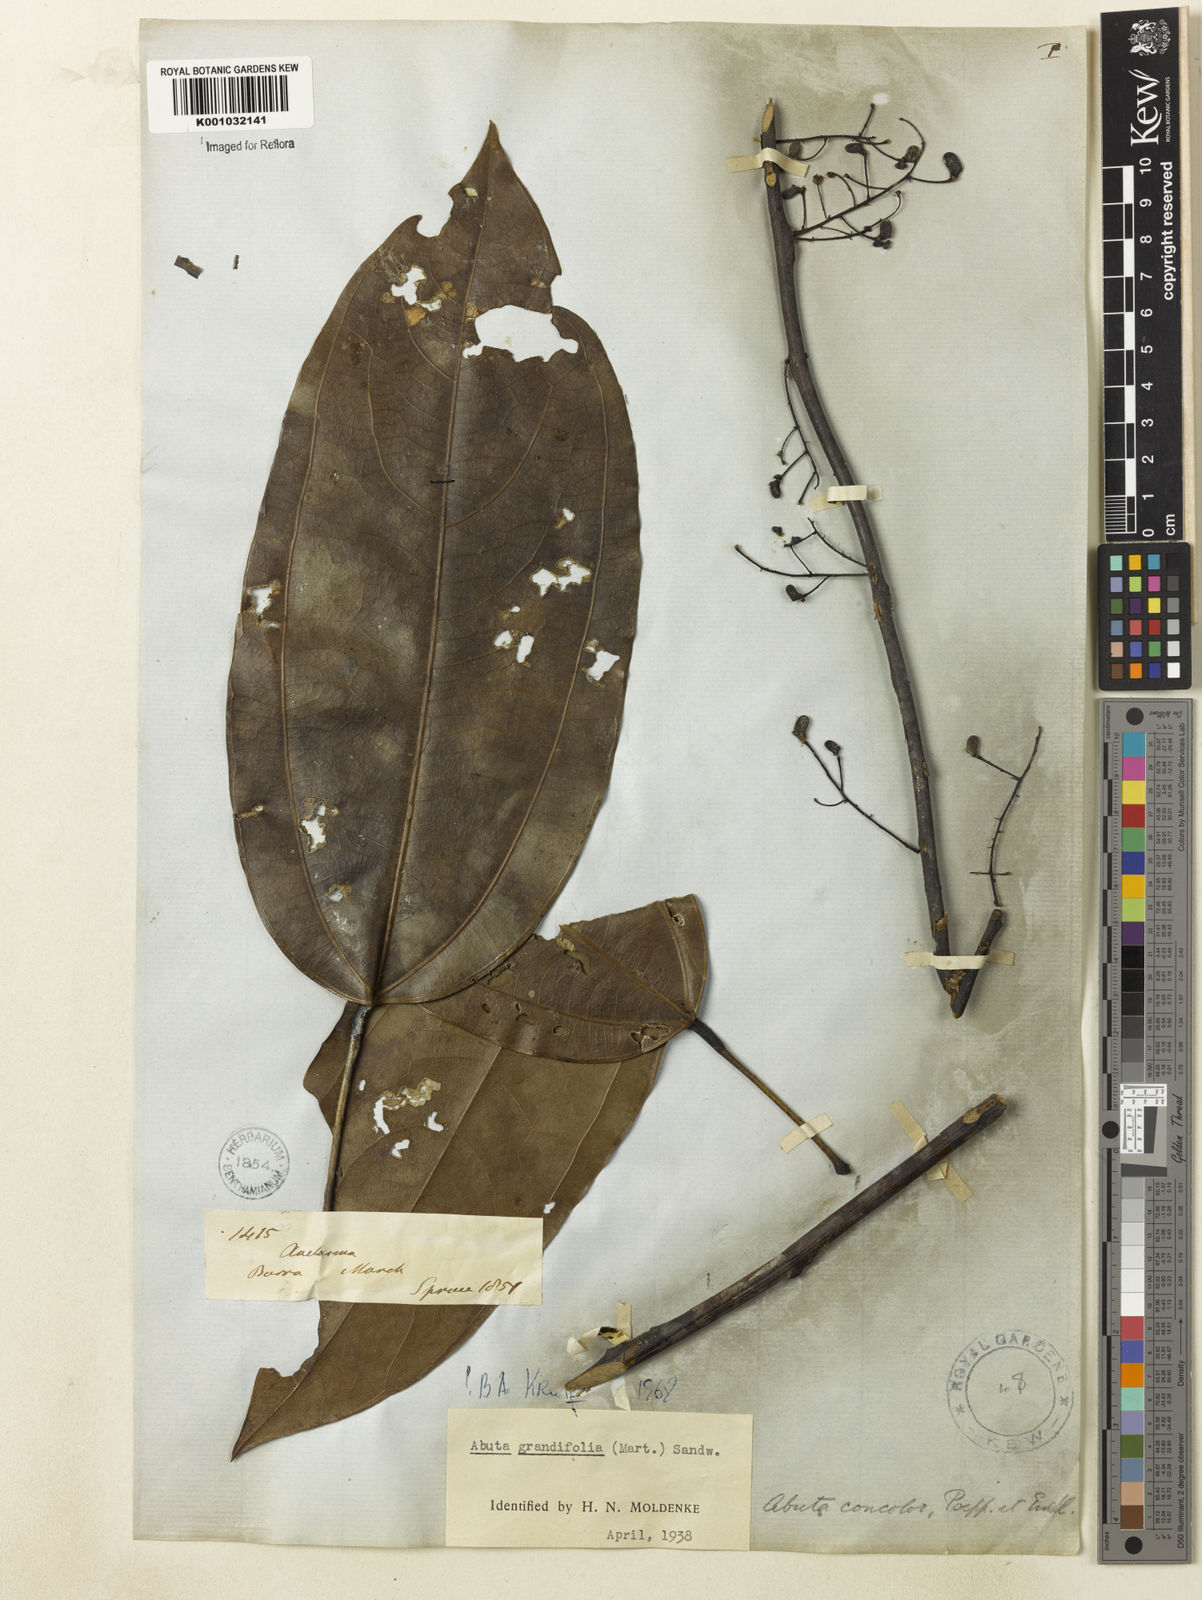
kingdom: Plantae
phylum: Tracheophyta
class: Magnoliopsida
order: Ranunculales
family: Menispermaceae
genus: Abuta
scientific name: Abuta grandifolia
